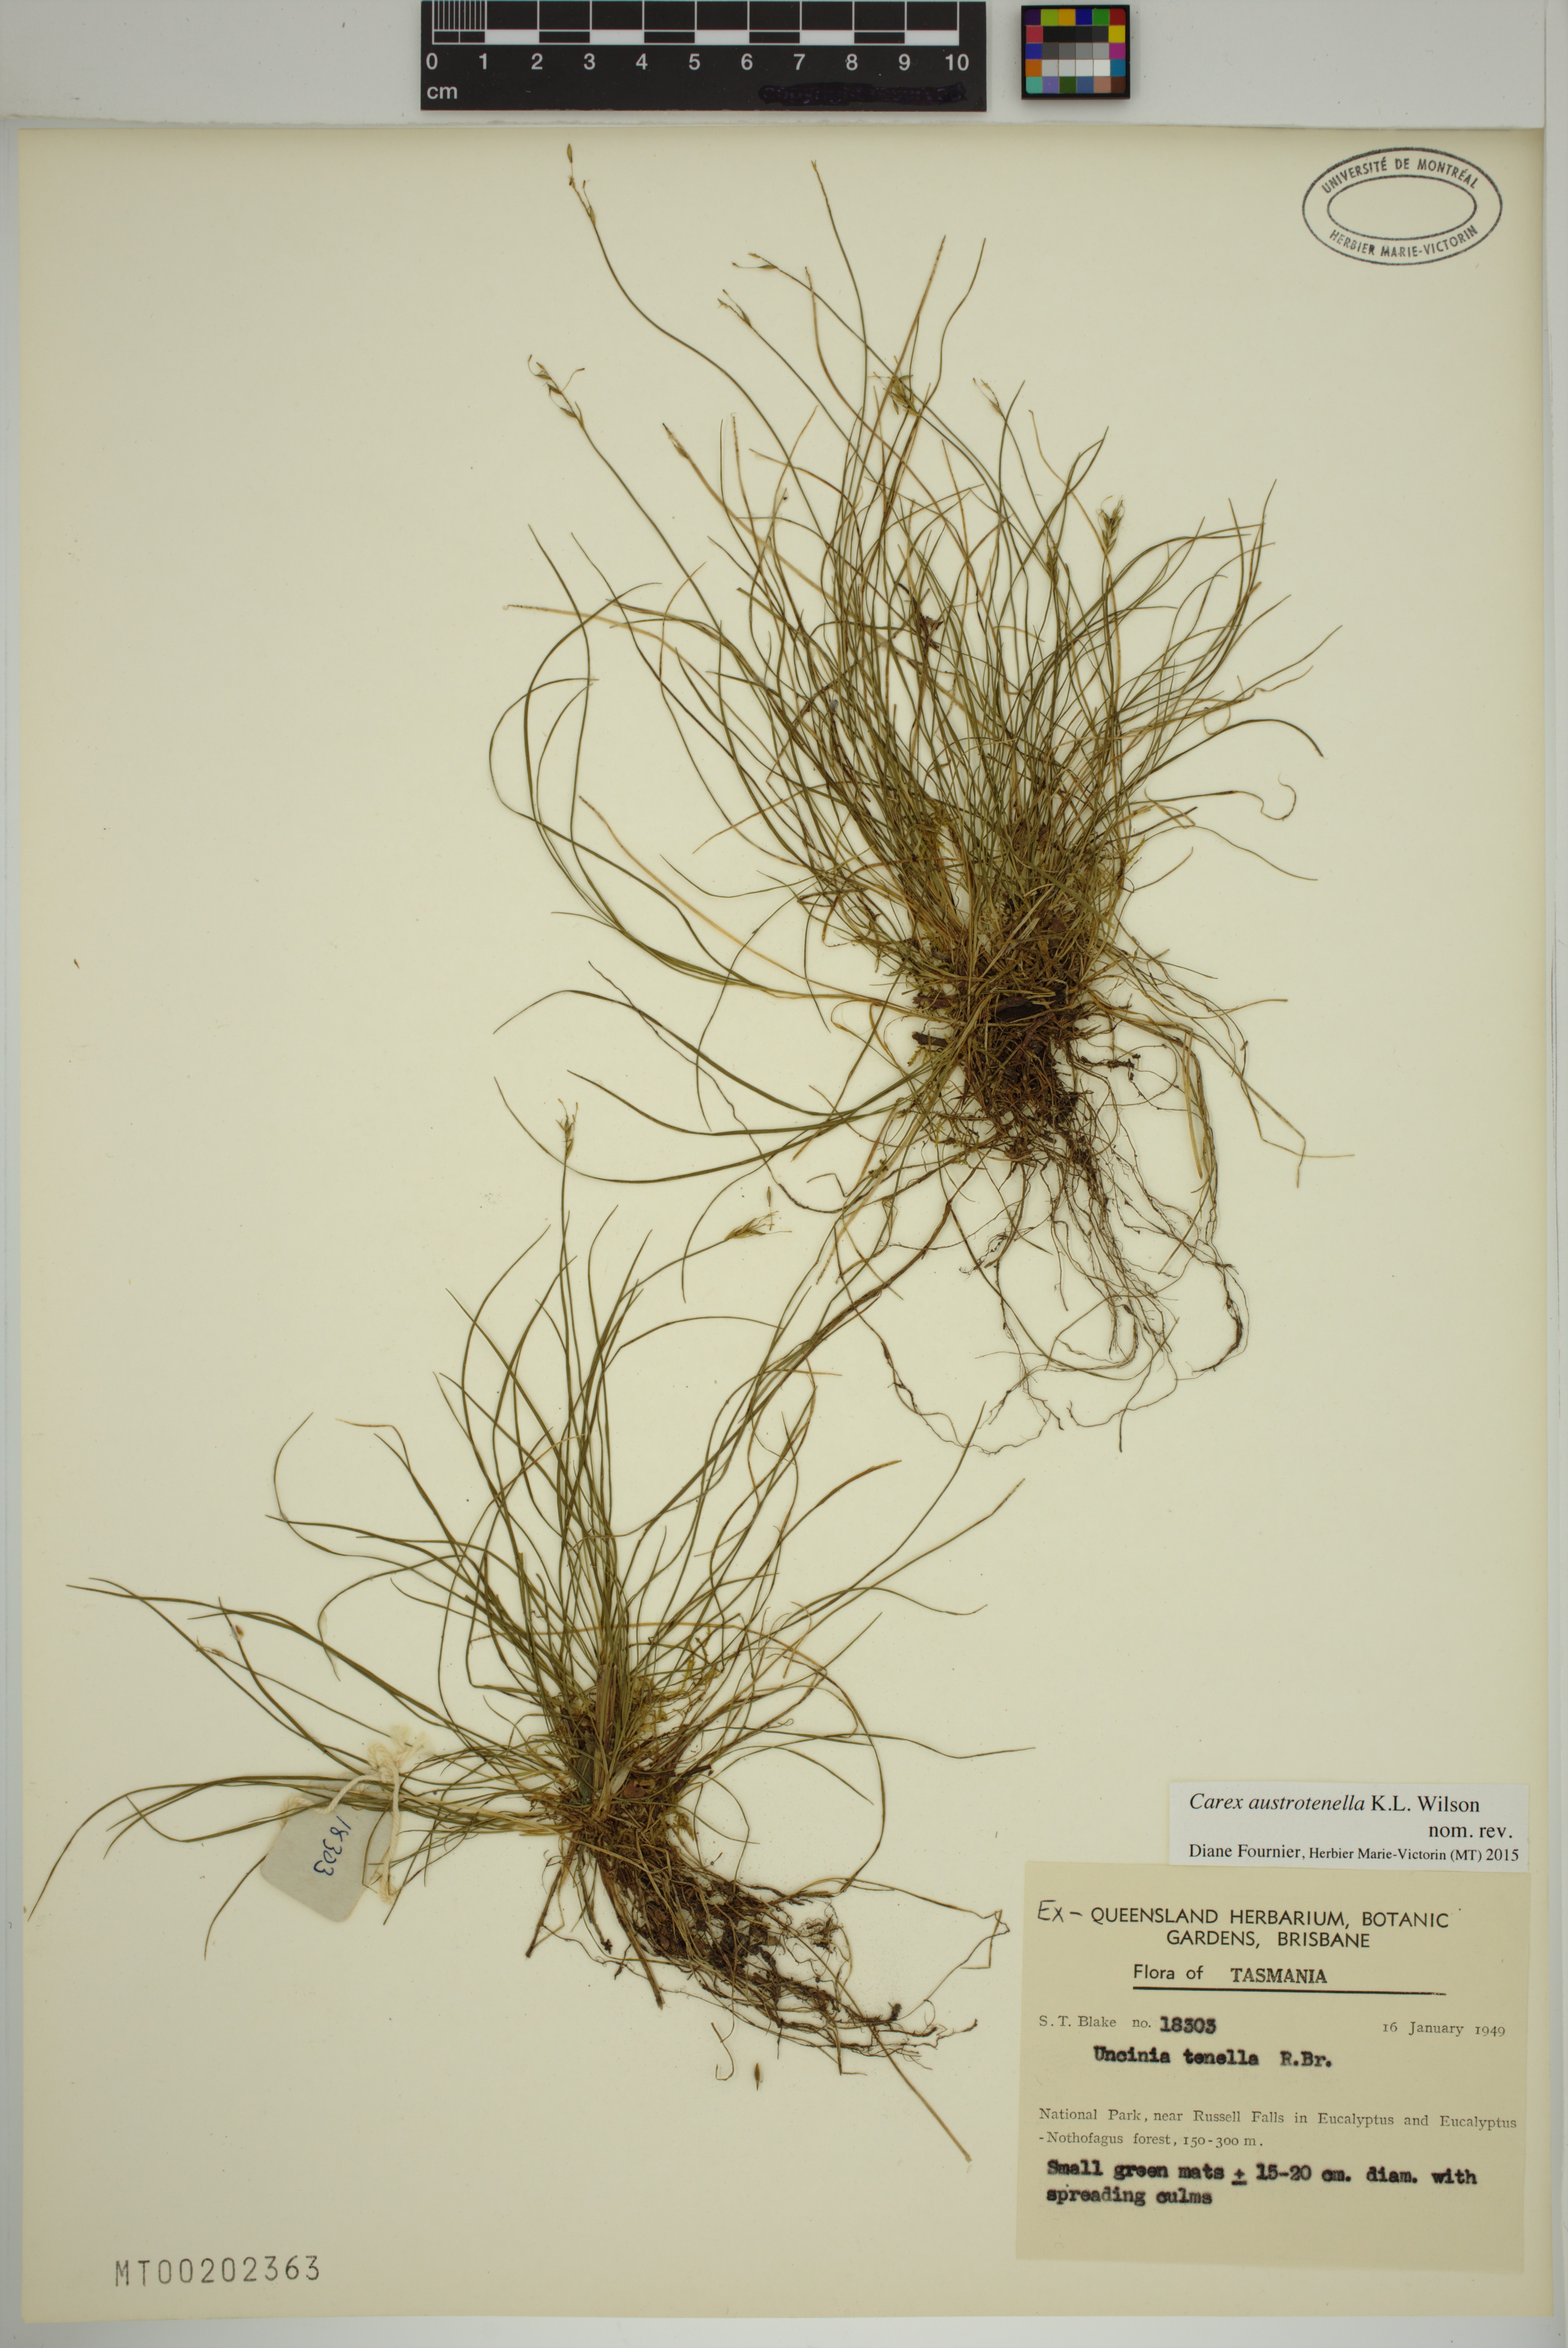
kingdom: Plantae
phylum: Tracheophyta
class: Liliopsida
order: Poales
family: Cyperaceae
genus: Carex
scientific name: Carex austrotenella
